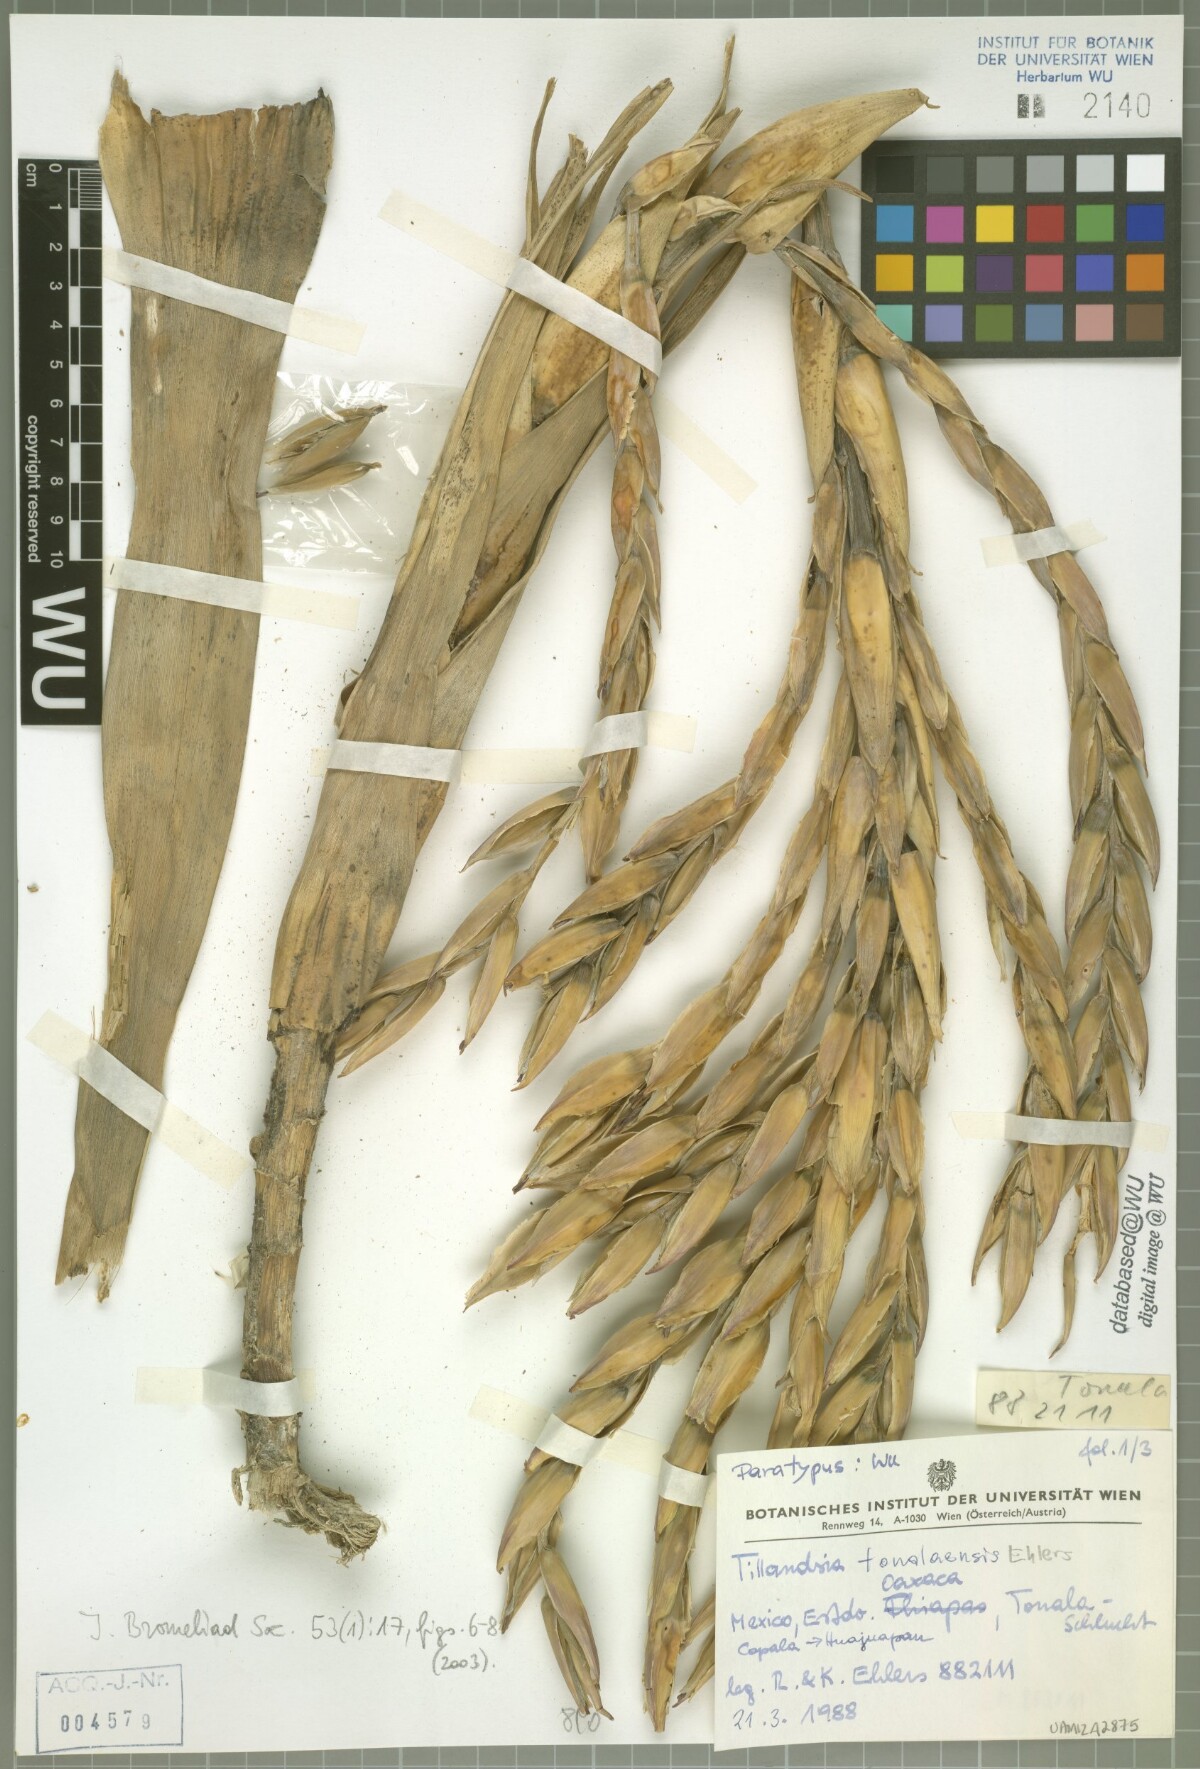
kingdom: Plantae
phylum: Tracheophyta
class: Liliopsida
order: Poales
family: Bromeliaceae
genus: Tillandsia
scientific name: Tillandsia tonalaensis
